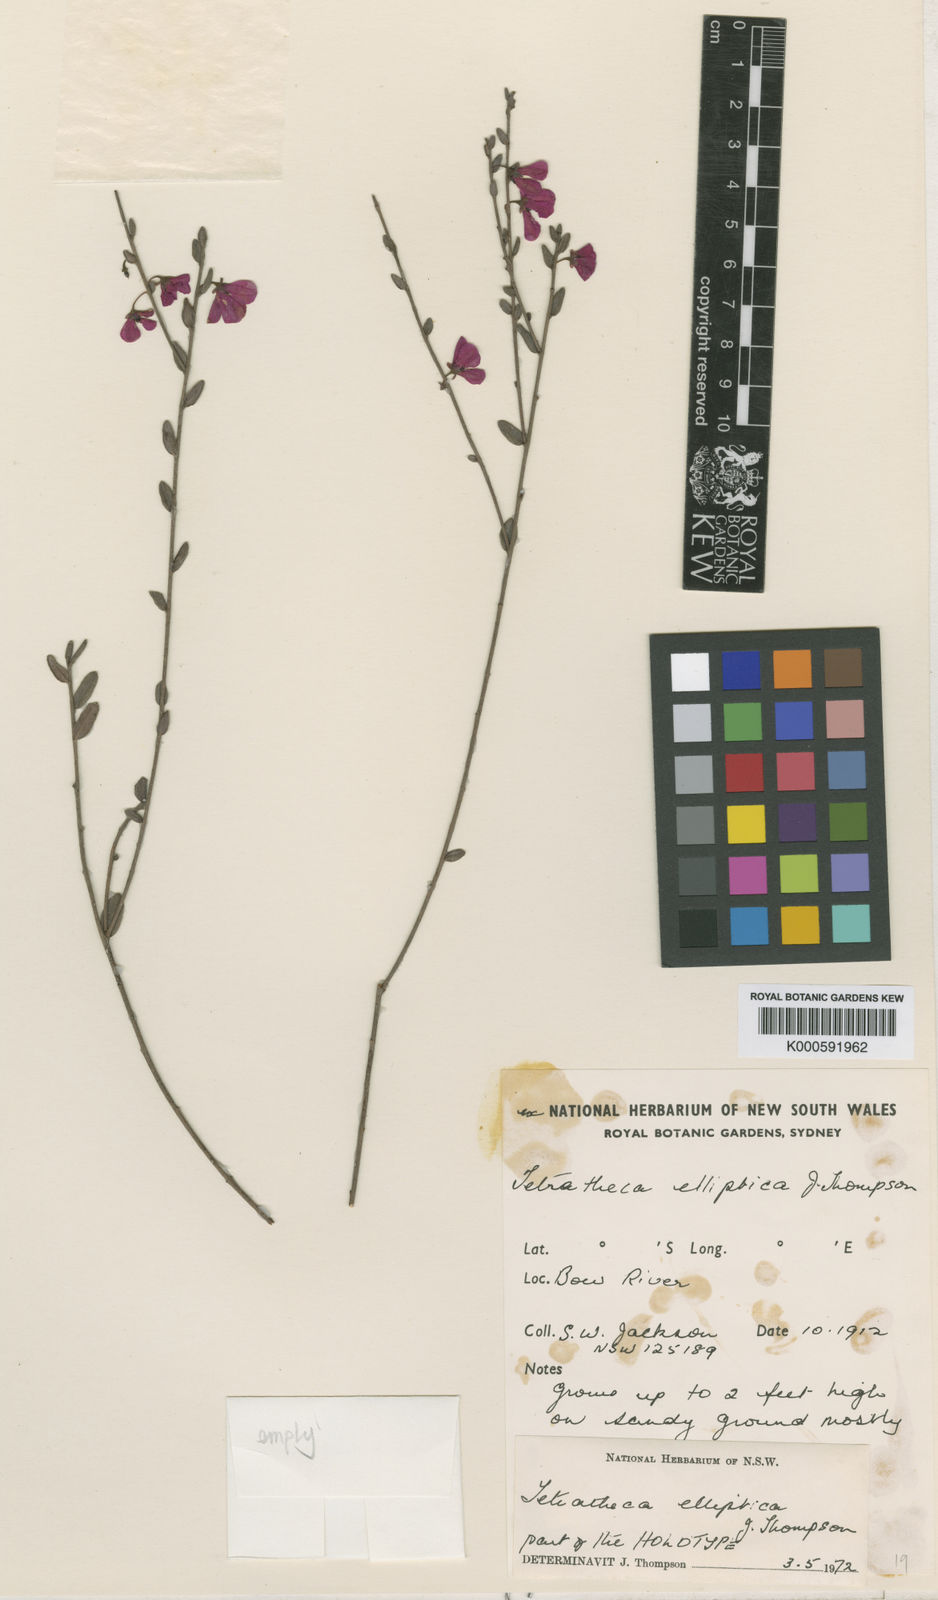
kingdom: Plantae
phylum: Tracheophyta
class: Magnoliopsida
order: Oxalidales
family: Elaeocarpaceae
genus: Tetratheca
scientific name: Tetratheca elliptica
